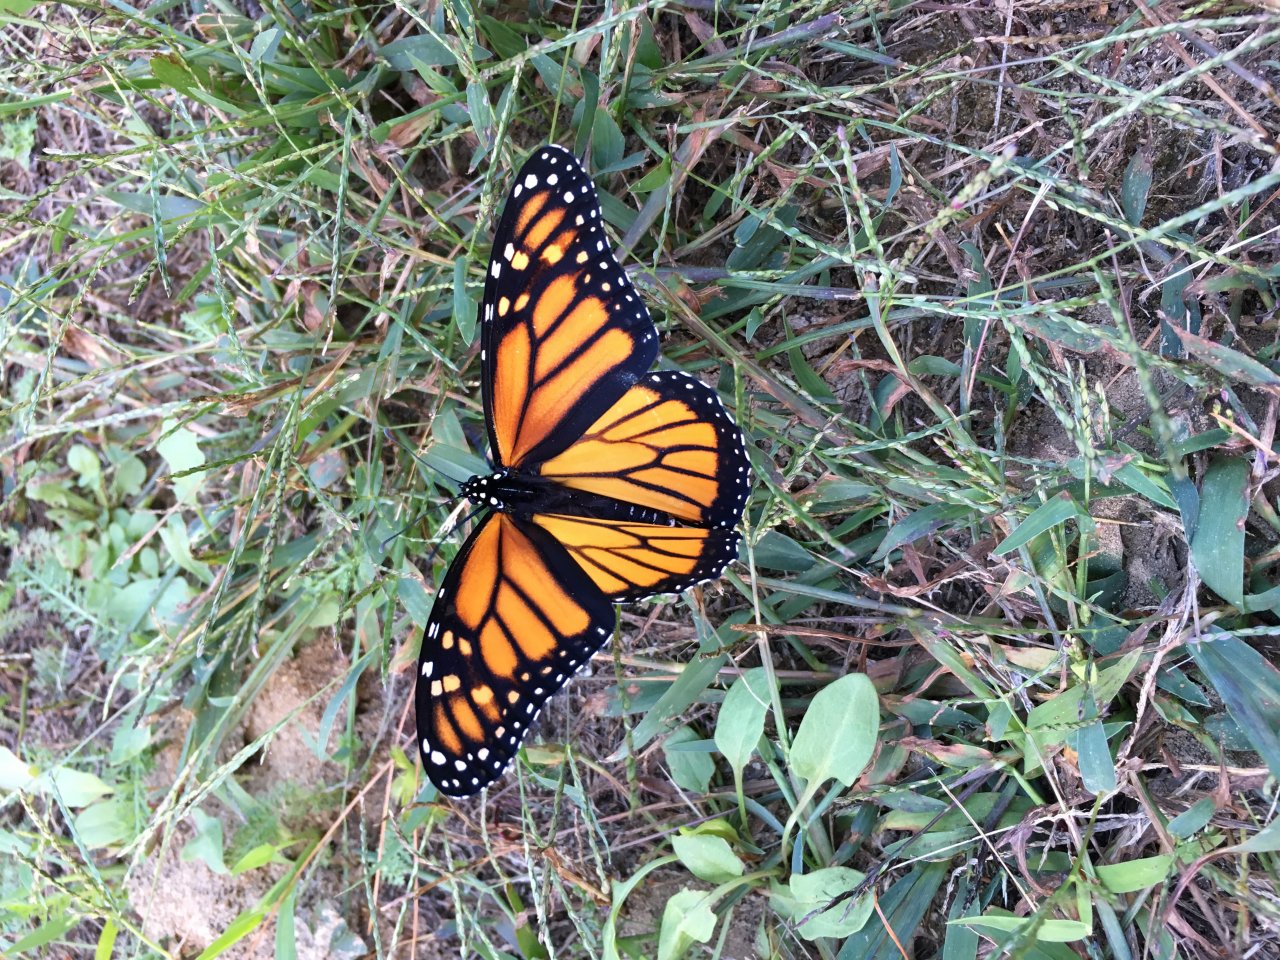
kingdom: Animalia
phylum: Arthropoda
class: Insecta
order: Lepidoptera
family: Nymphalidae
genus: Danaus
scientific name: Danaus plexippus
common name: Monarch
